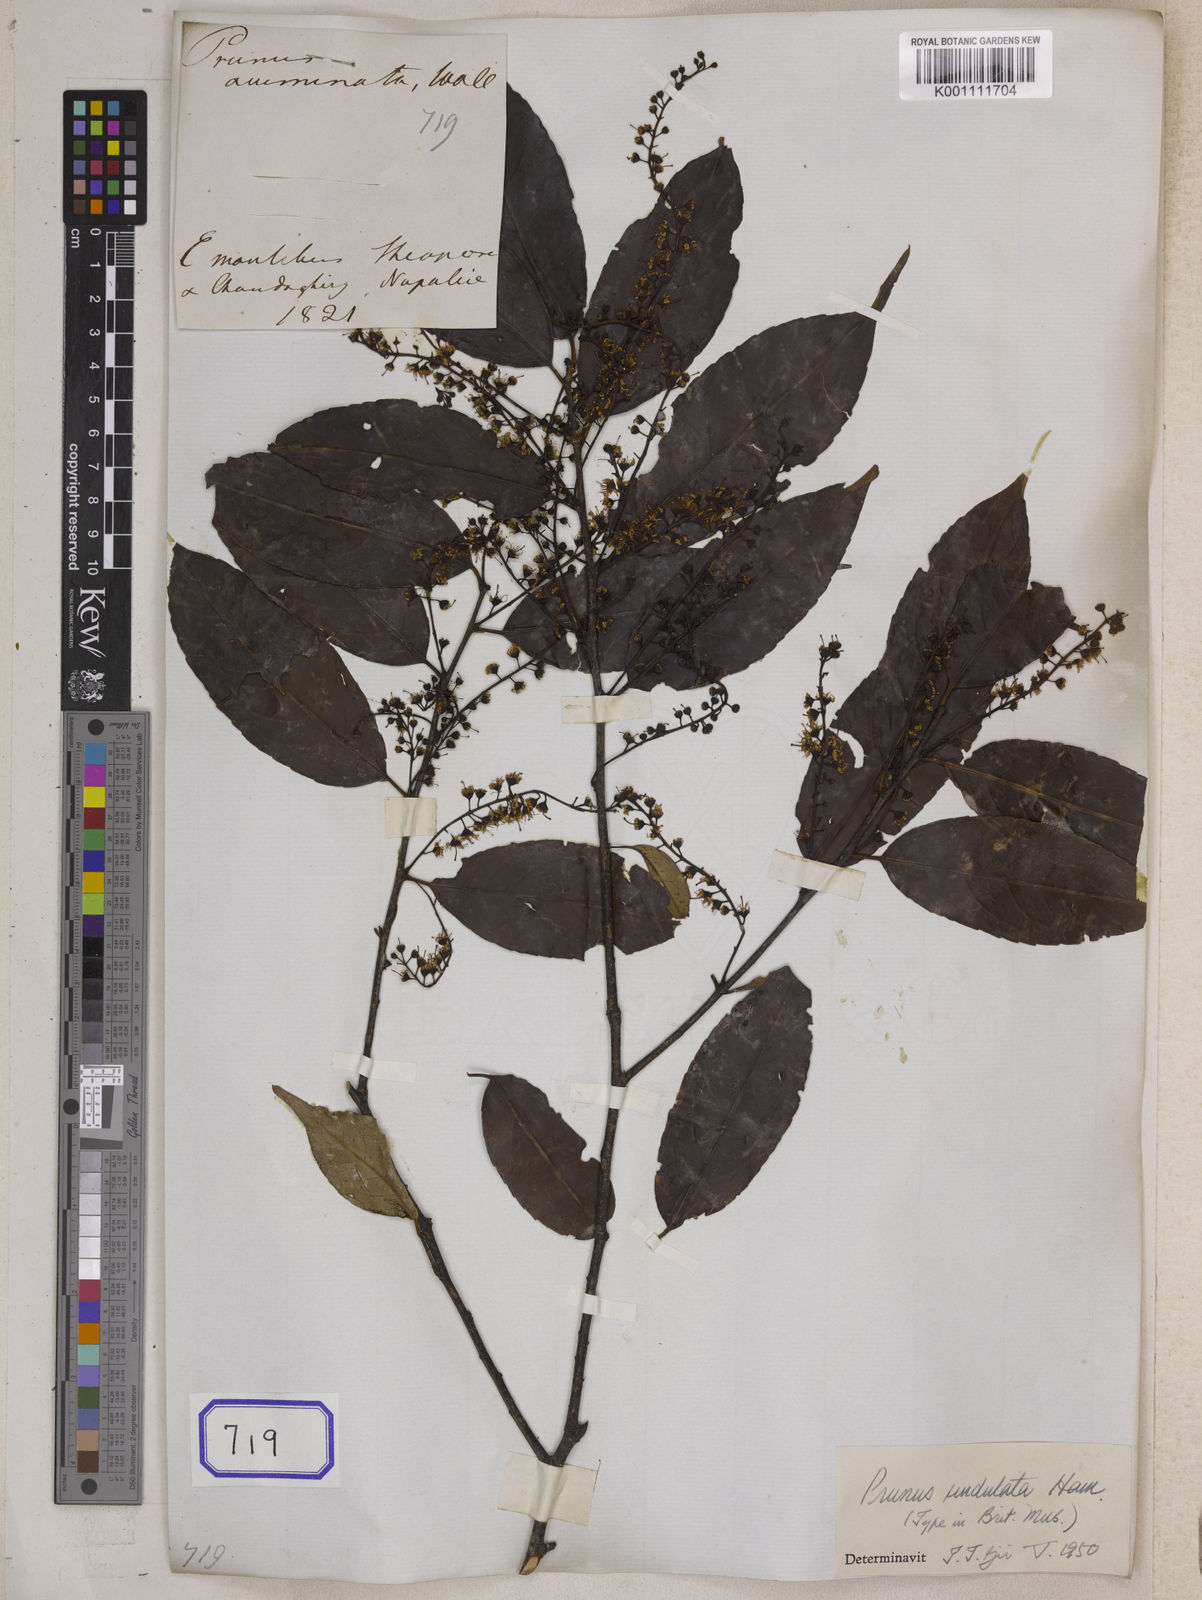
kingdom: Plantae
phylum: Tracheophyta
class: Magnoliopsida
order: Rosales
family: Rosaceae
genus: Prunus
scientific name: Prunus undulata
